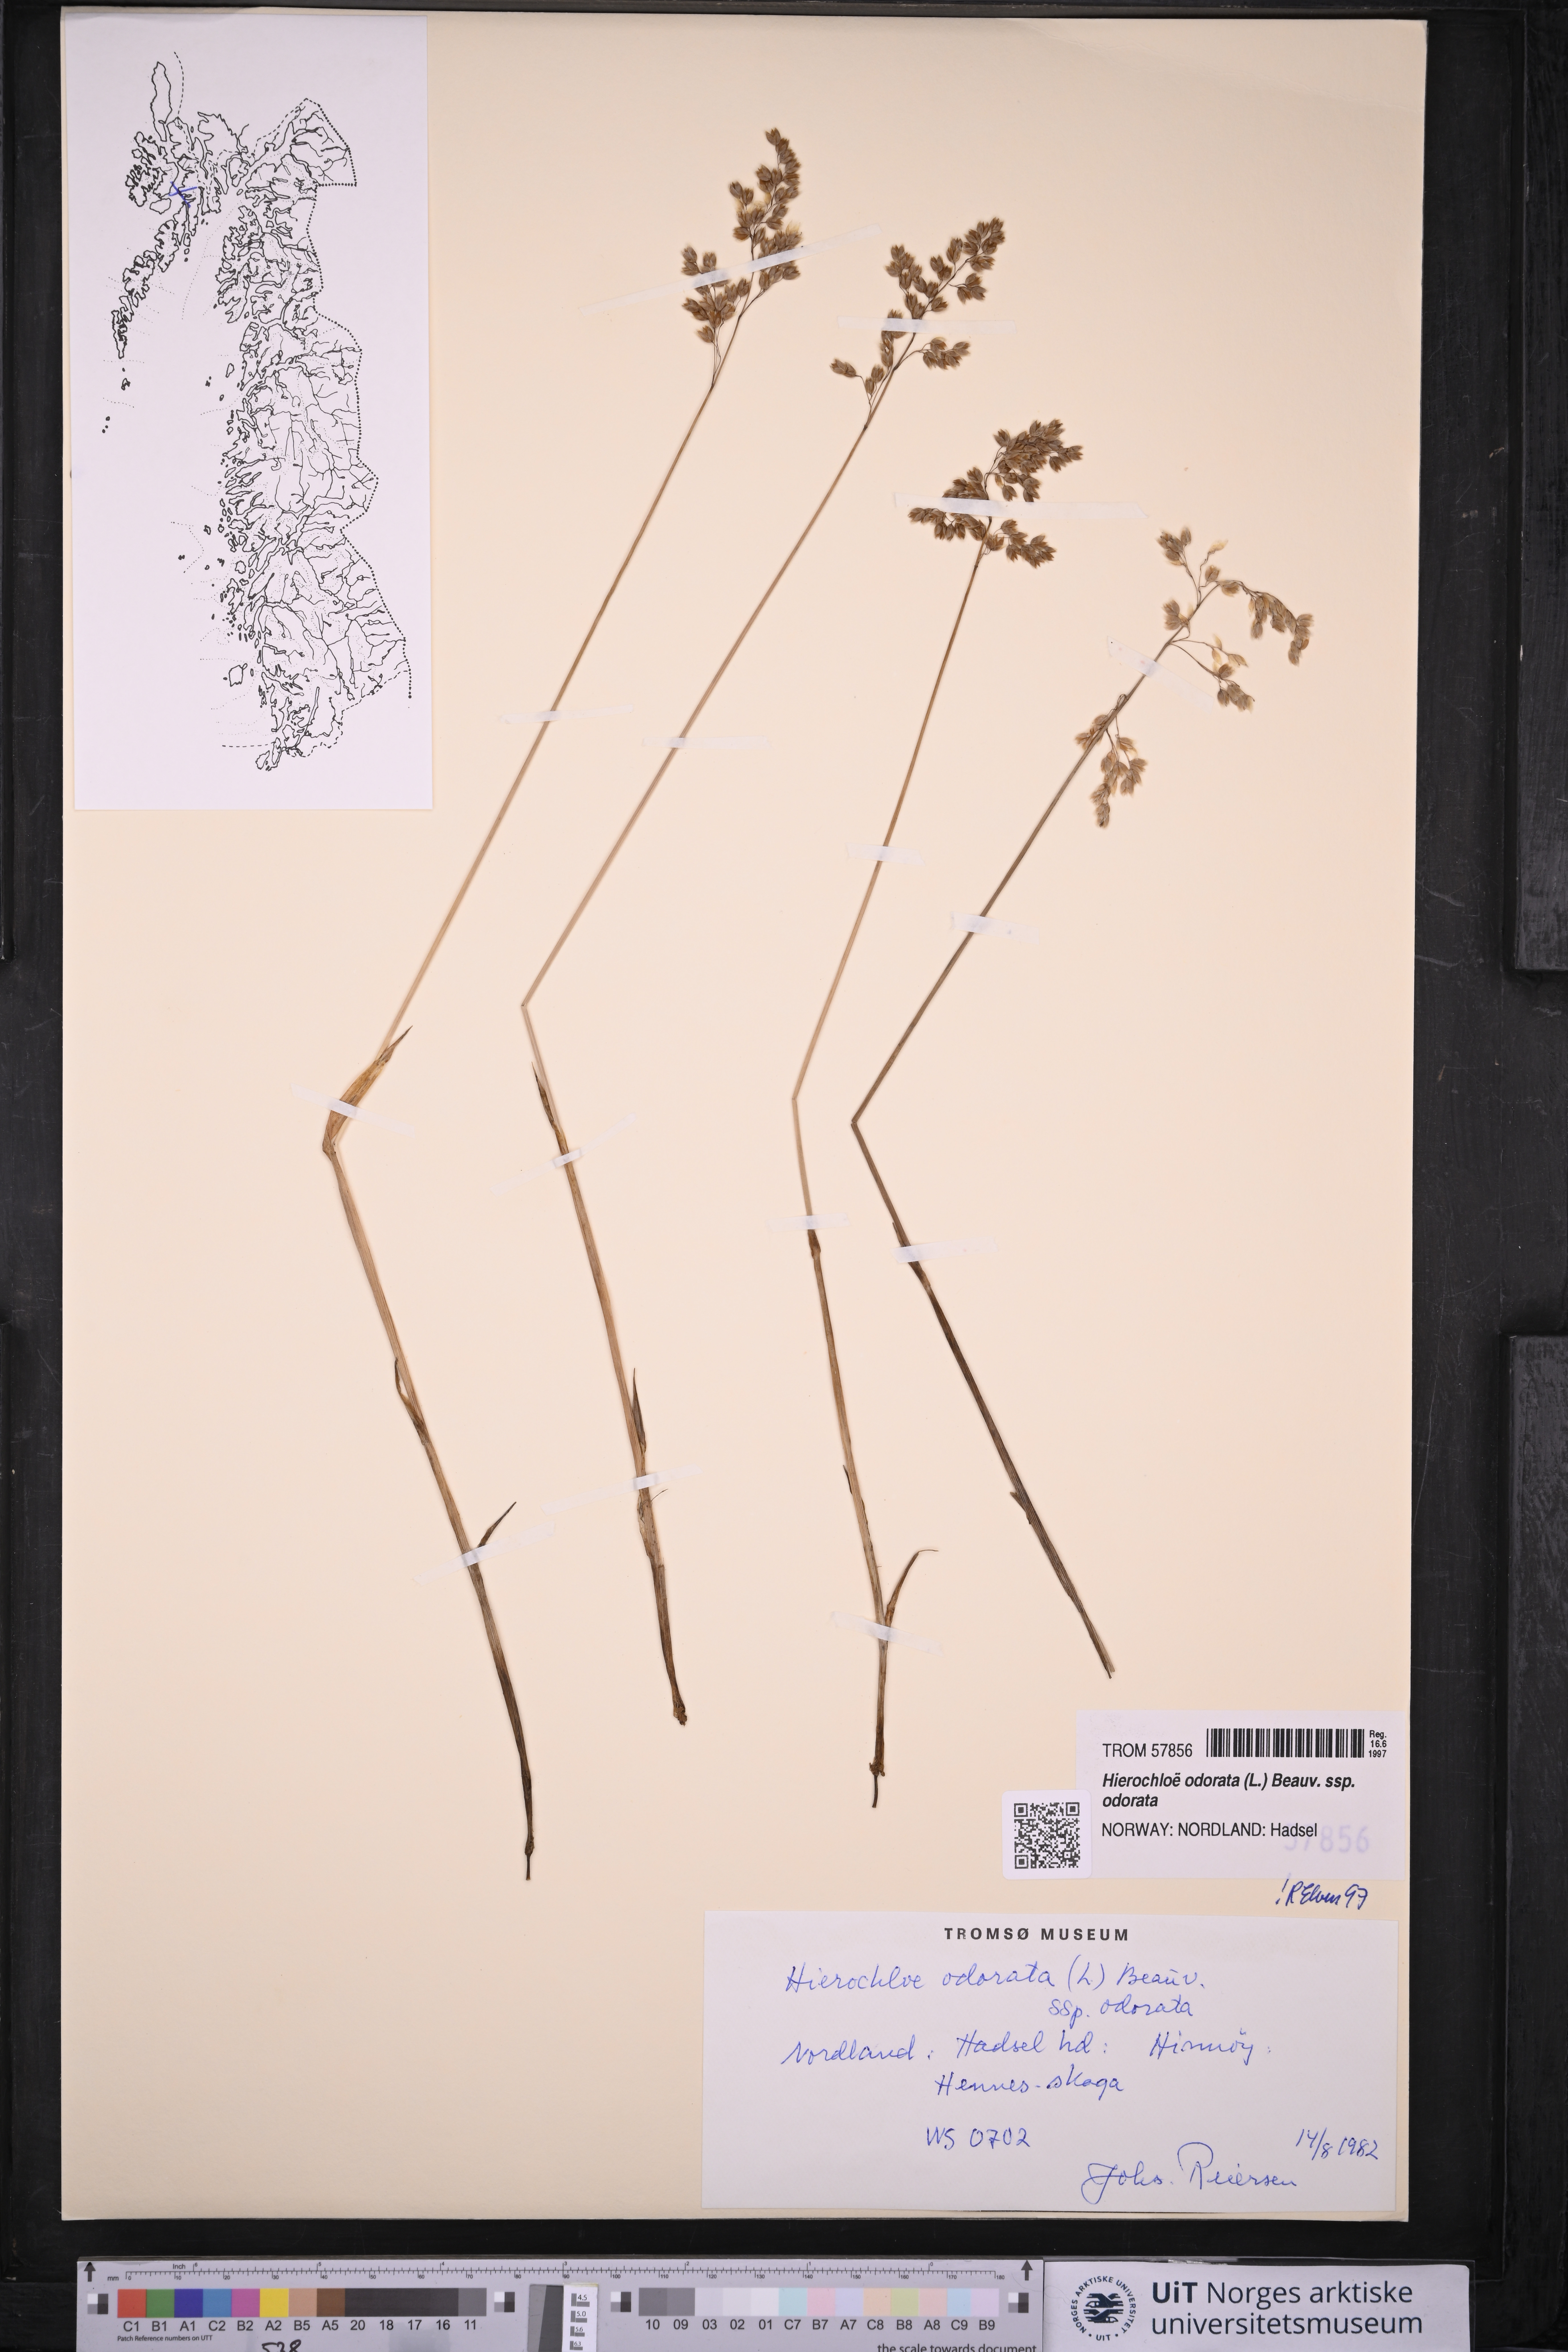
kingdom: Plantae
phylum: Tracheophyta
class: Liliopsida
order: Poales
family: Poaceae
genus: Anthoxanthum
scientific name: Anthoxanthum nitens
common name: Holy grass
